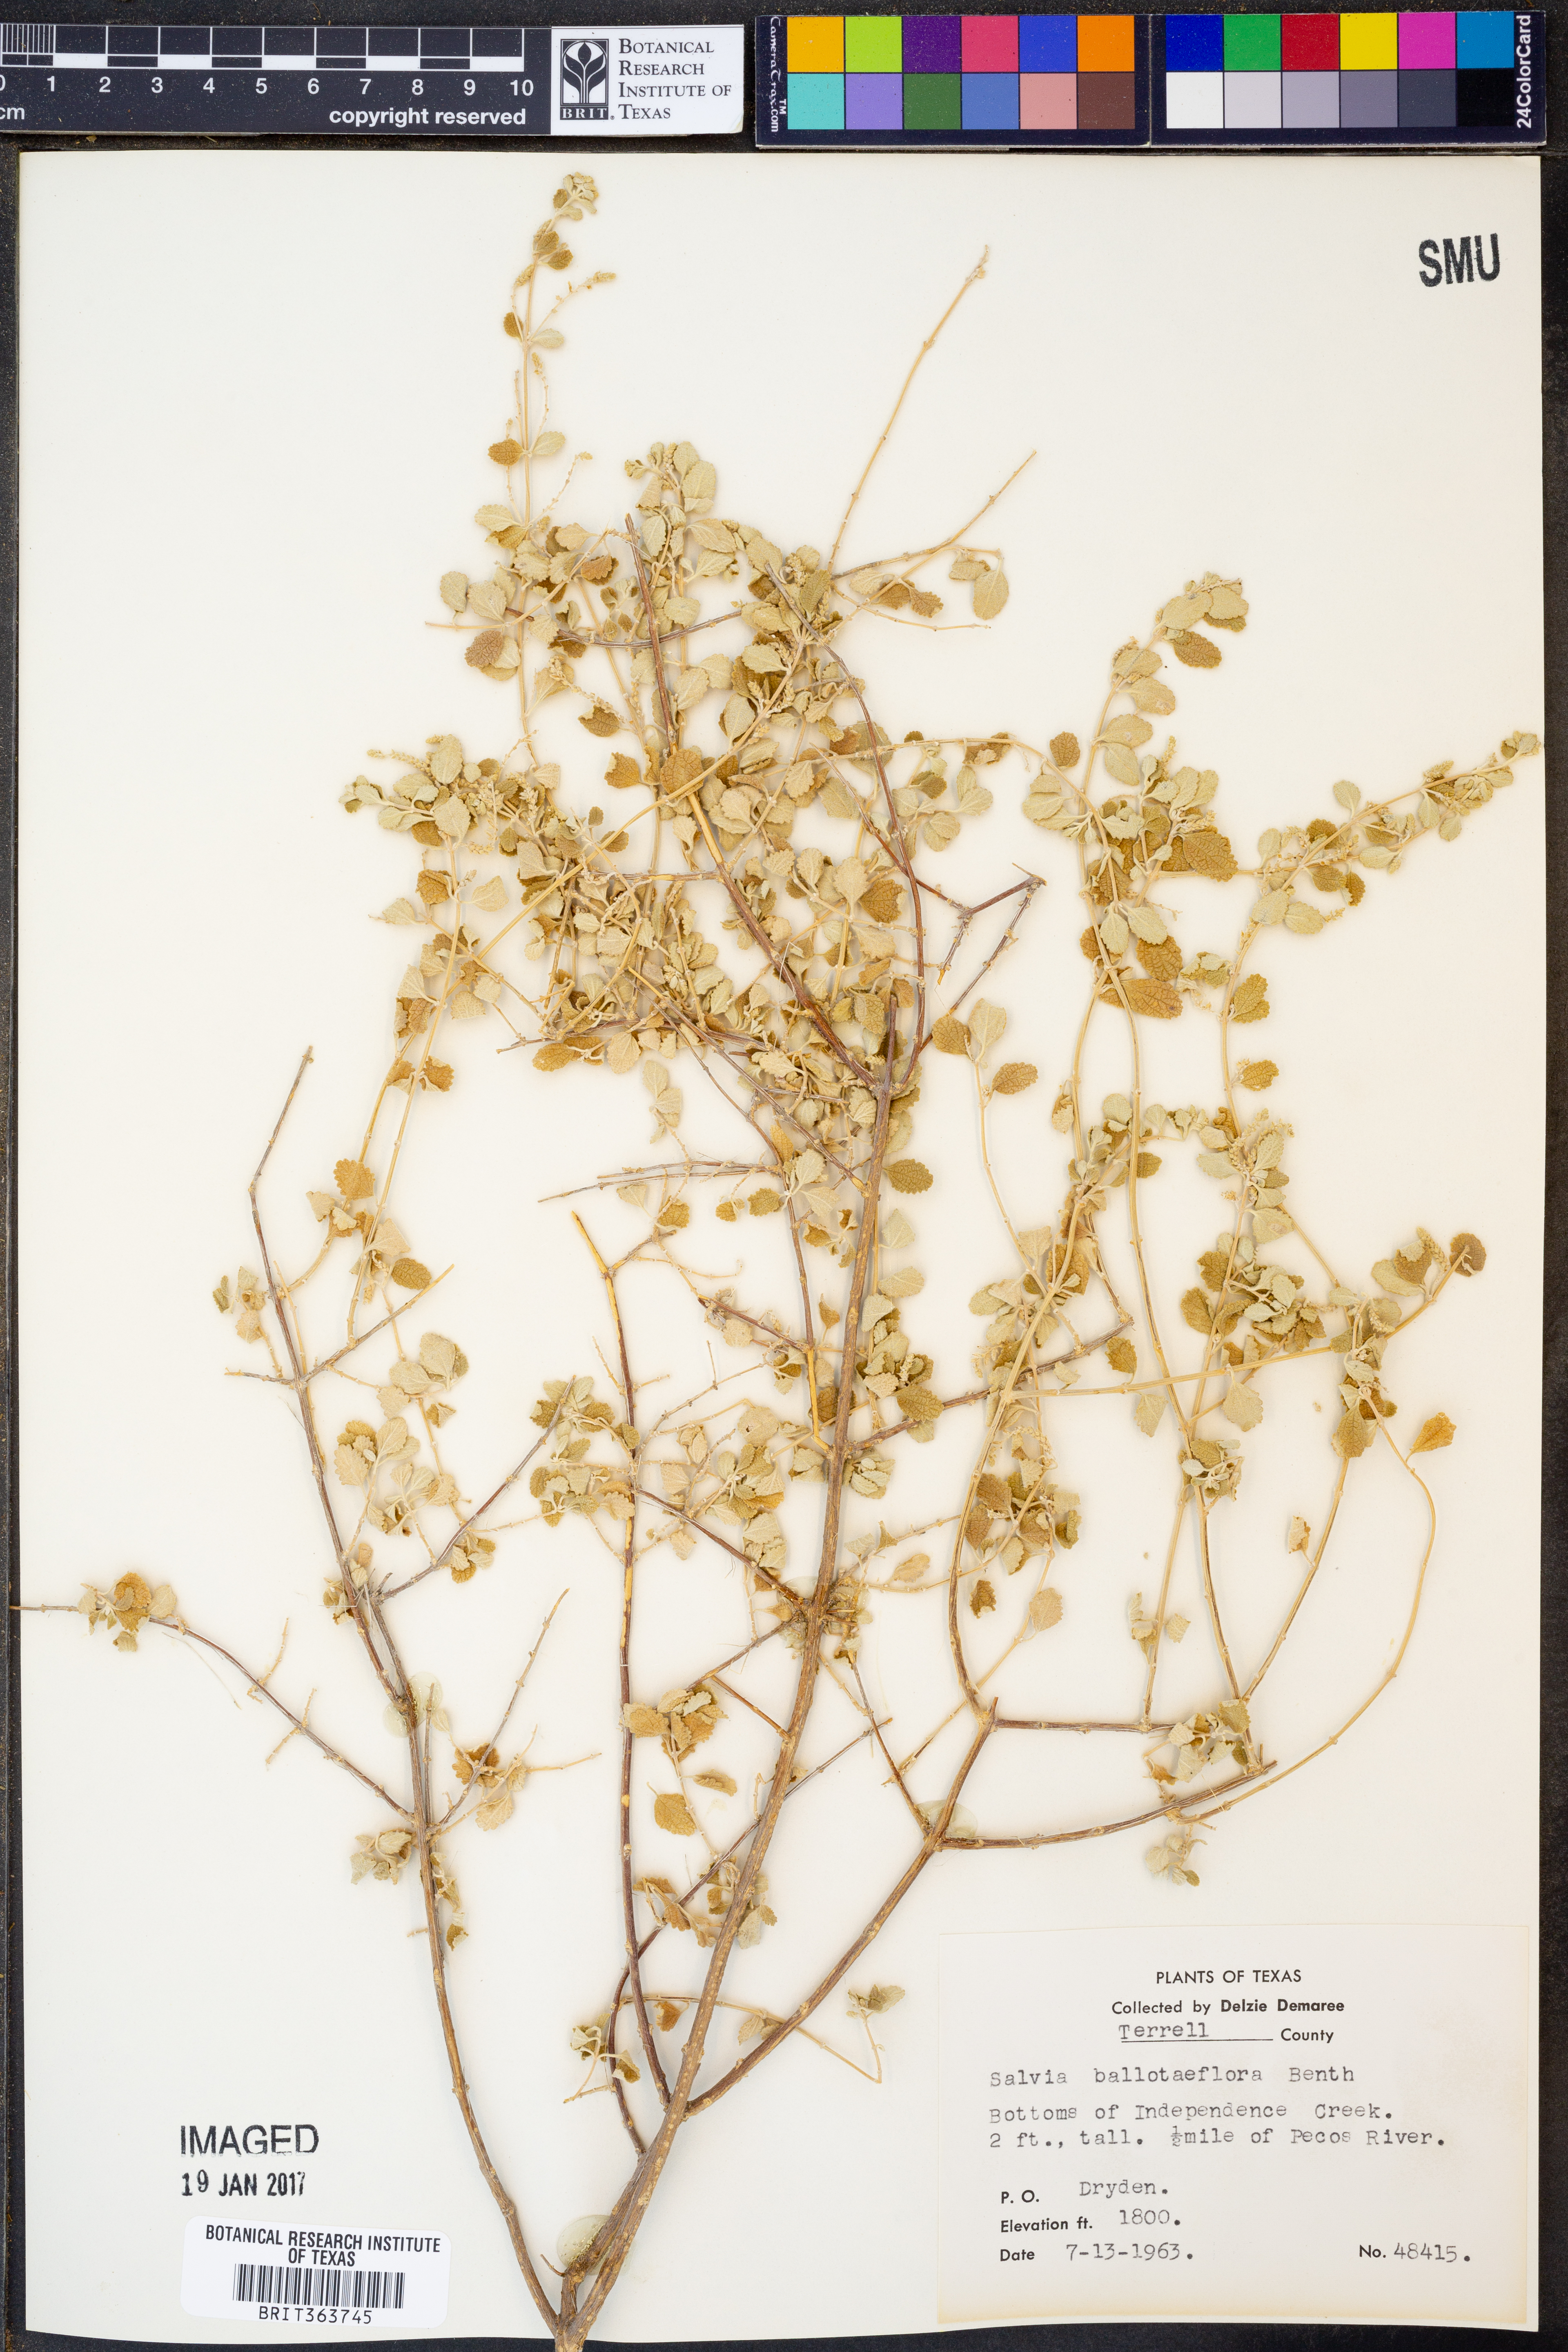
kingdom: Plantae
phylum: Tracheophyta
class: Magnoliopsida
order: Lamiales
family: Lamiaceae
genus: Salvia
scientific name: Salvia ballotiflora
